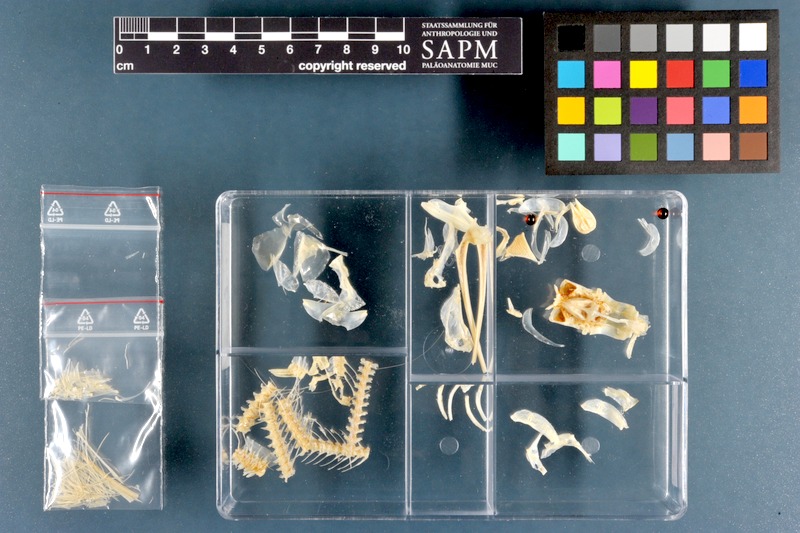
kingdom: Animalia
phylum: Chordata
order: Beloniformes
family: Hemiramphidae
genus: Hemiramphus
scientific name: Hemiramphus far
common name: Black-barred halfbeak
